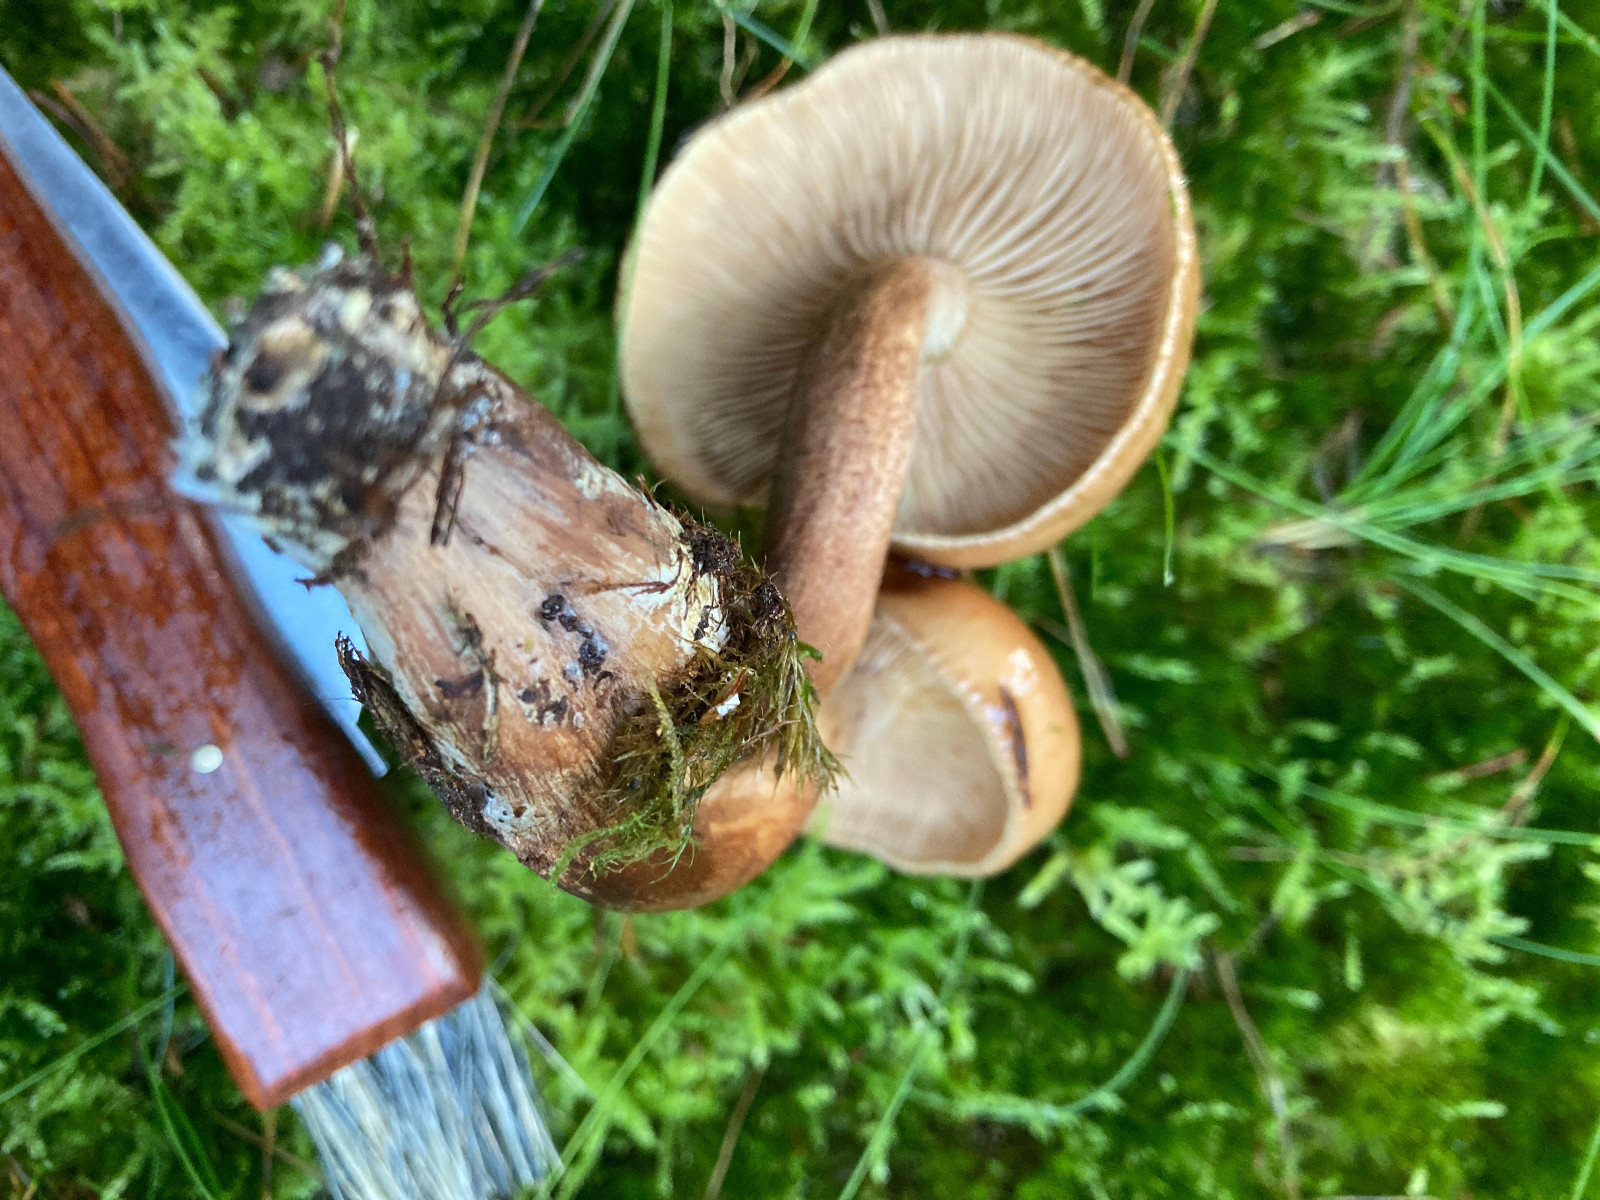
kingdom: Fungi
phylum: Basidiomycota
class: Agaricomycetes
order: Agaricales
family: Tricholomataceae
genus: Tricholoma
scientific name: Tricholoma fulvum
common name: birke-ridderhat
